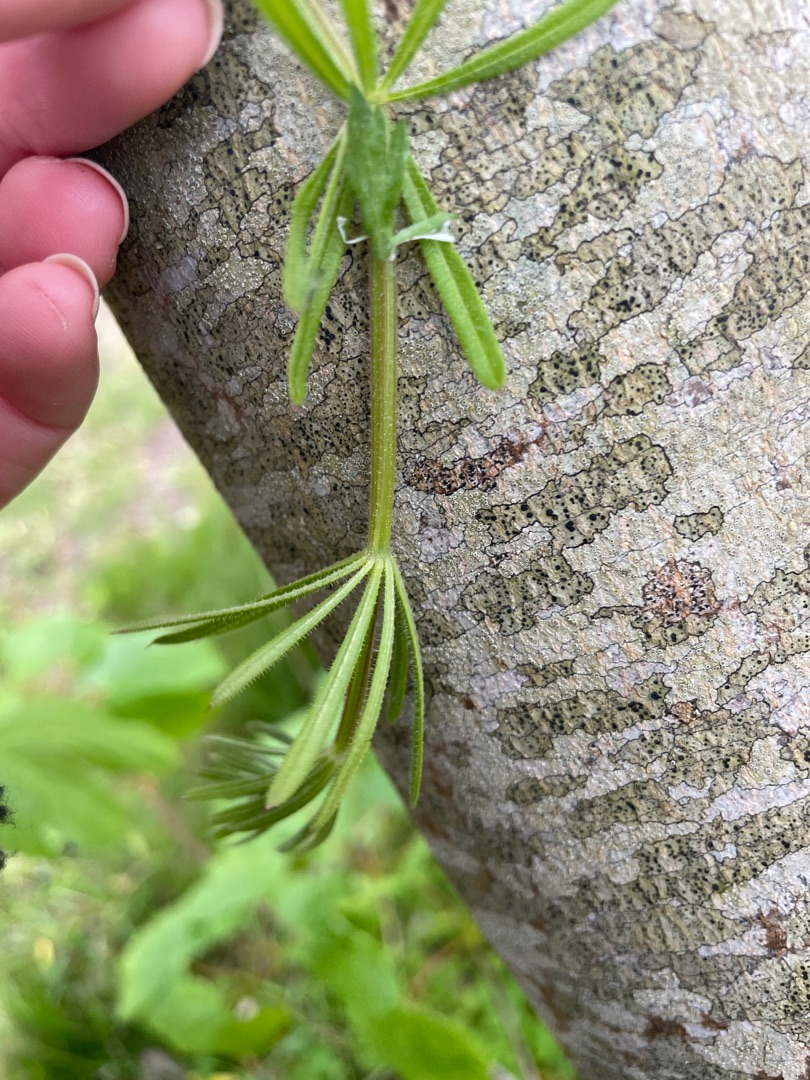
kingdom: Plantae
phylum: Tracheophyta
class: Magnoliopsida
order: Gentianales
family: Rubiaceae
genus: Galium
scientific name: Galium aparine
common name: Burre-snerre
